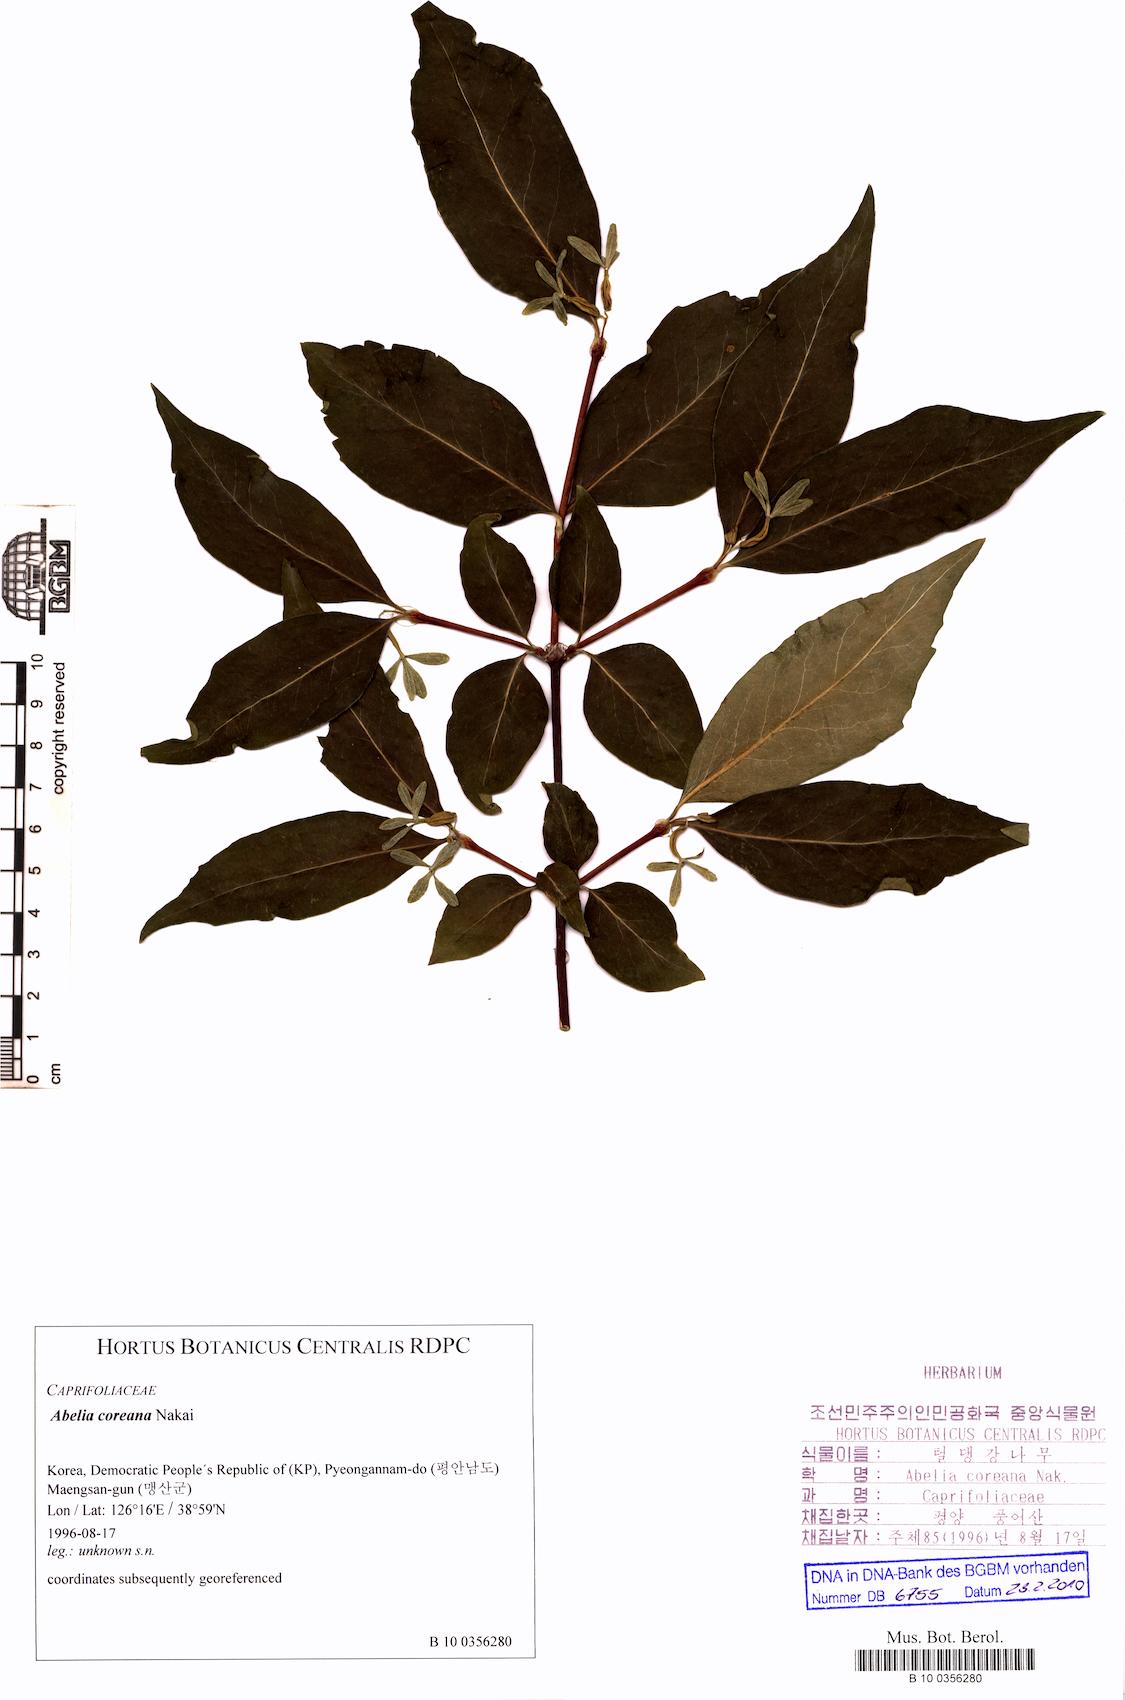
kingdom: Plantae
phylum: Tracheophyta
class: Magnoliopsida
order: Dipsacales
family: Caprifoliaceae
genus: Zabelia
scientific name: Zabelia biflora
